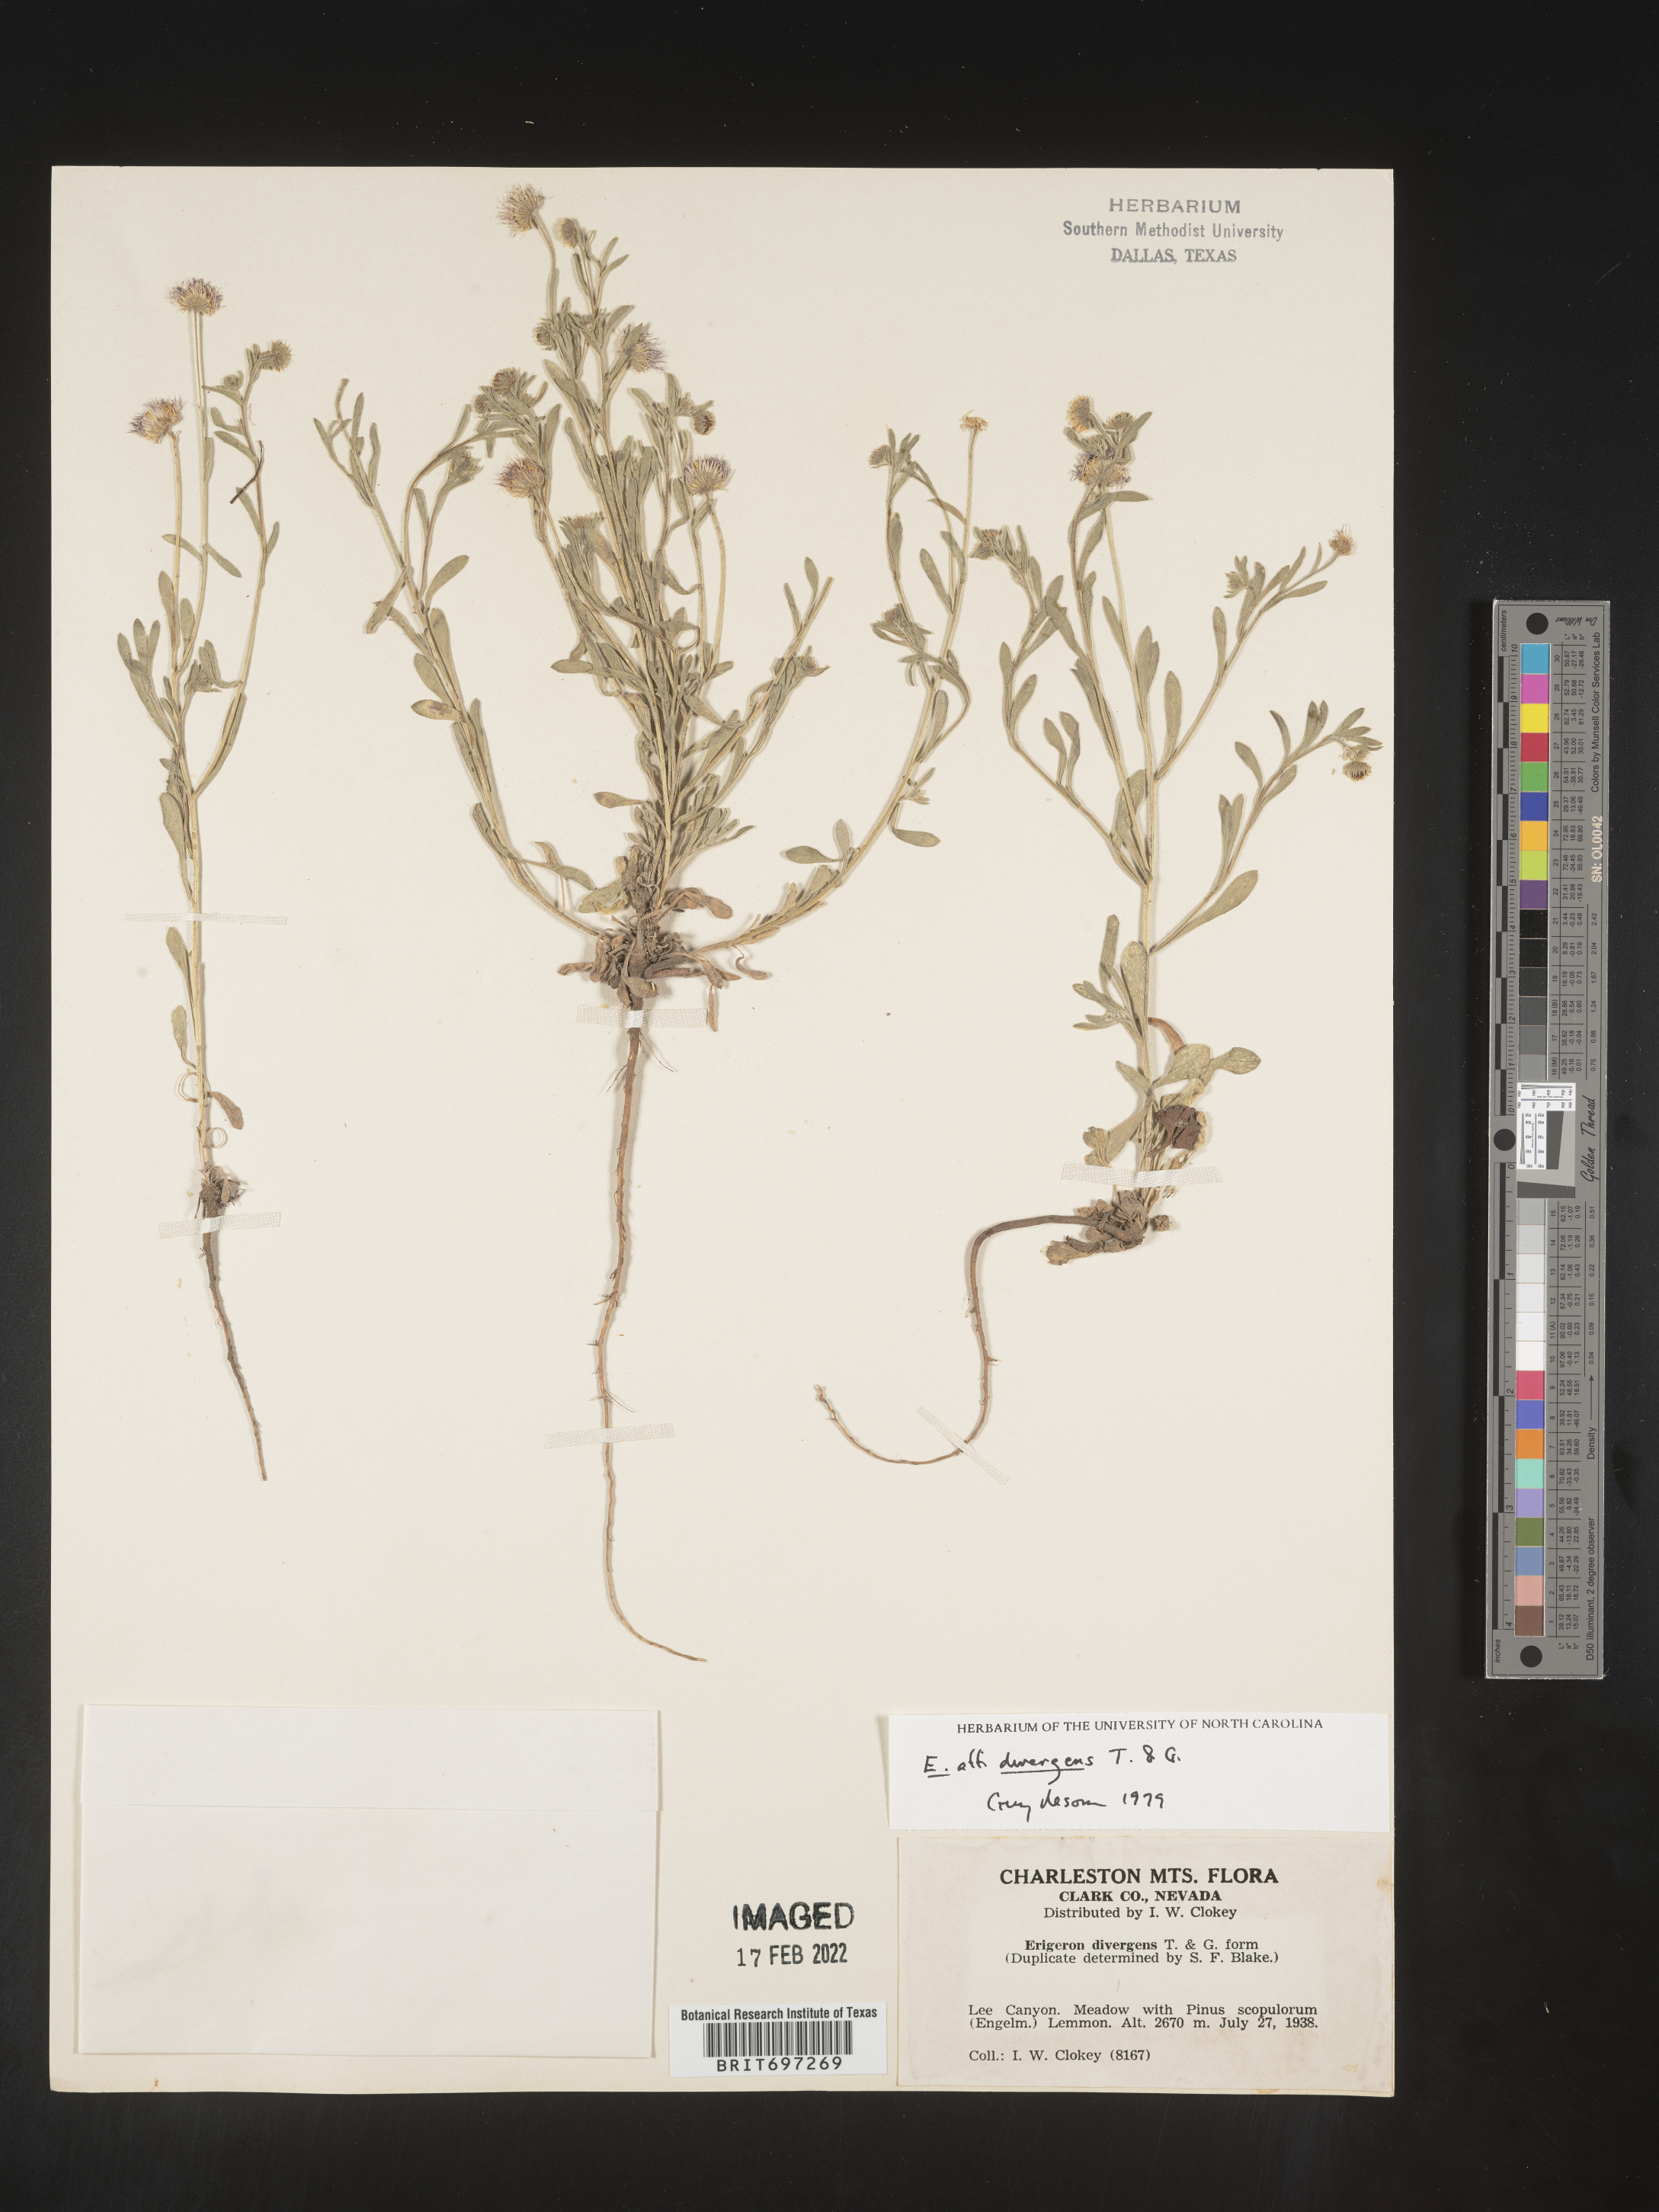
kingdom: Plantae
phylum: Tracheophyta
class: Magnoliopsida
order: Asterales
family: Asteraceae
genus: Erigeron
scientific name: Erigeron divergens
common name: Diffuse fleabane
